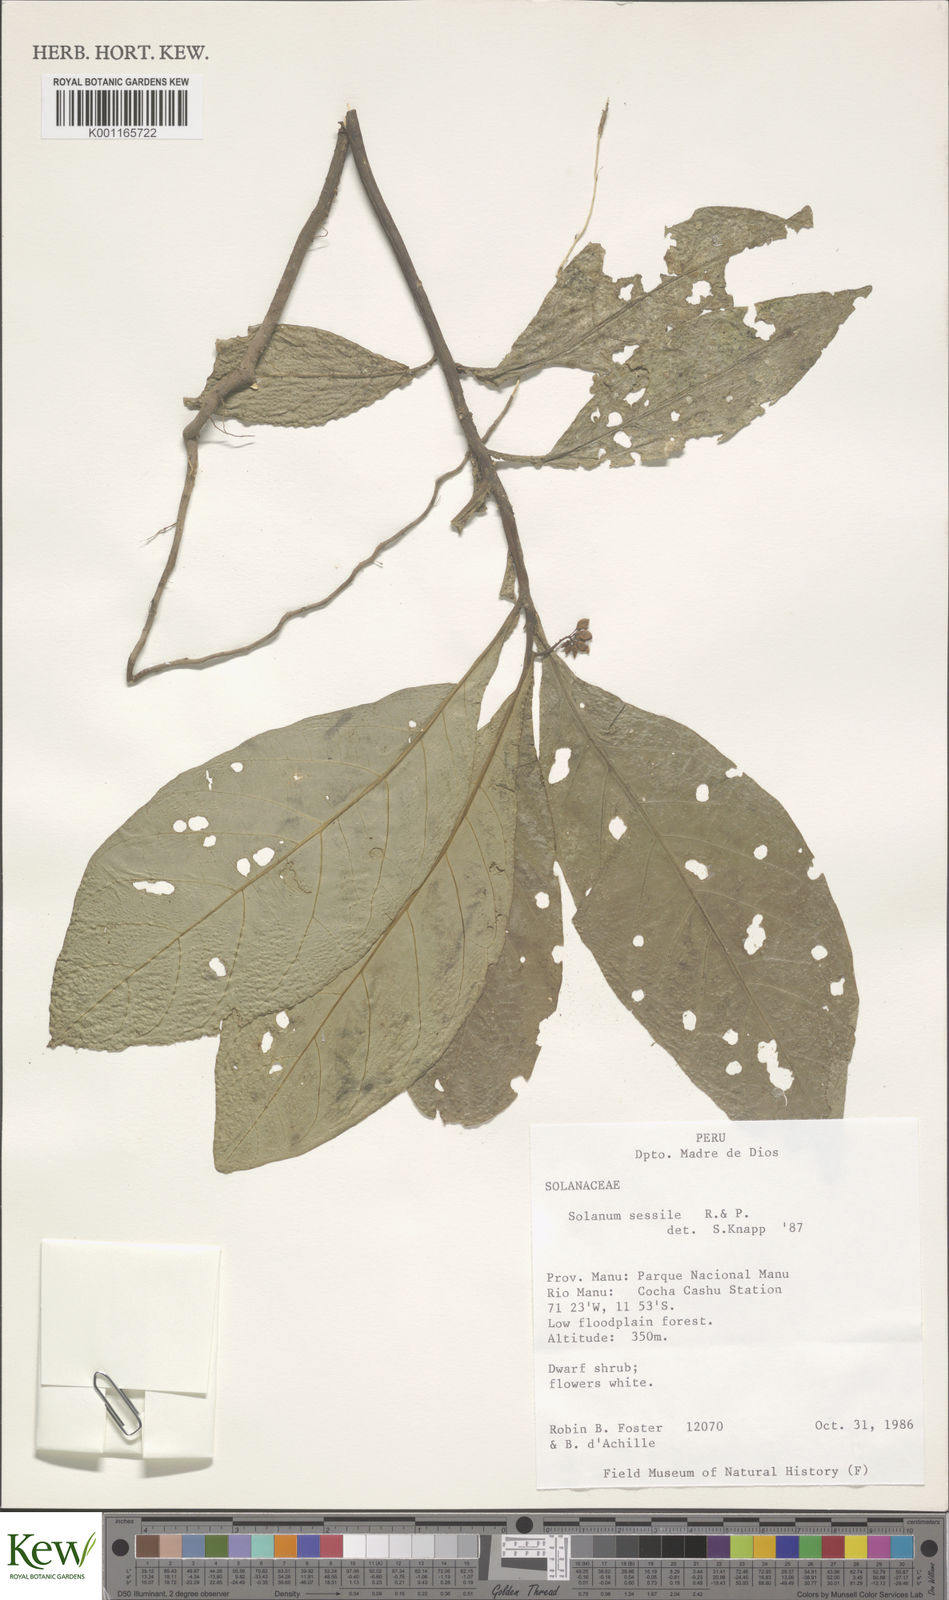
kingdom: Plantae
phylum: Tracheophyta
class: Magnoliopsida
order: Solanales
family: Solanaceae
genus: Solanum
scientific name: Solanum sessile
